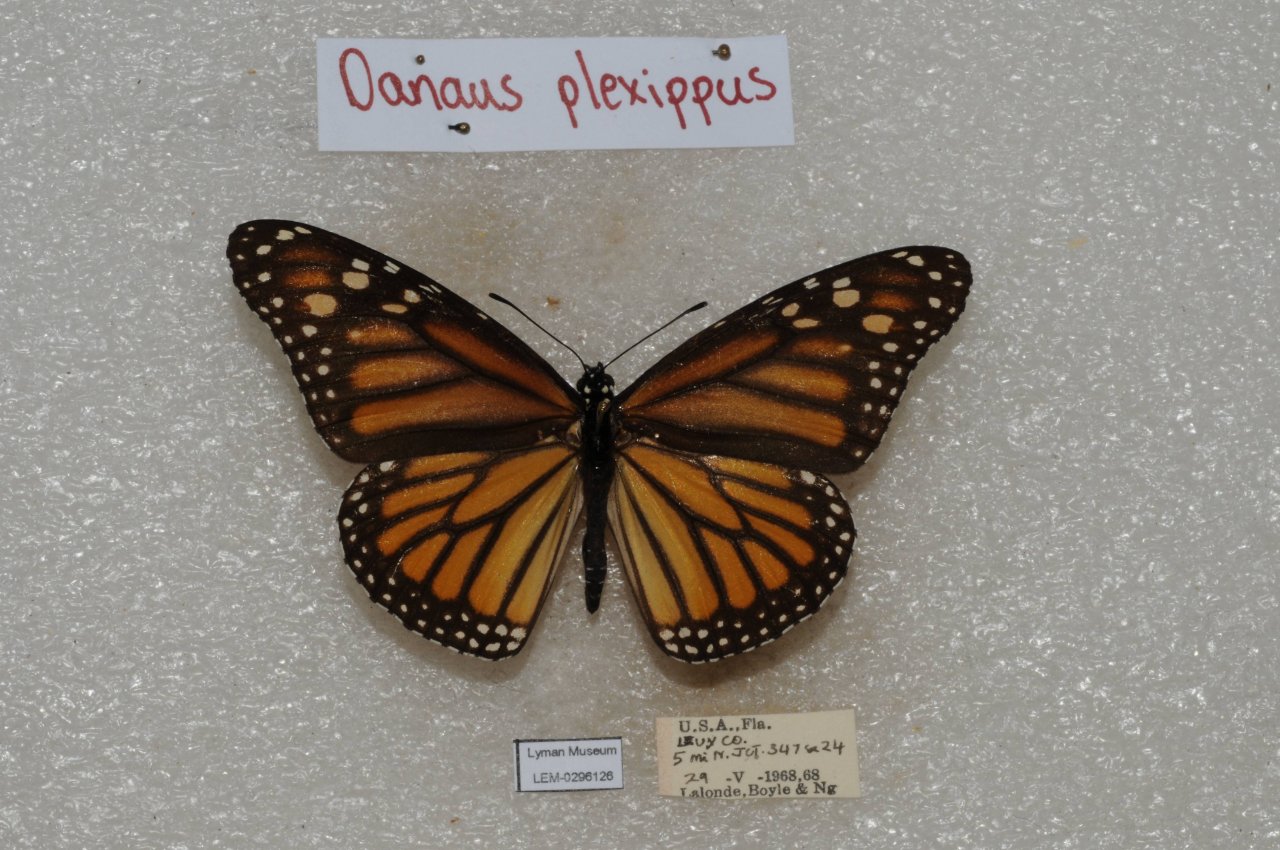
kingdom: Animalia
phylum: Arthropoda
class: Insecta
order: Lepidoptera
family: Nymphalidae
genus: Danaus
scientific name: Danaus plexippus
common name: Monarch
